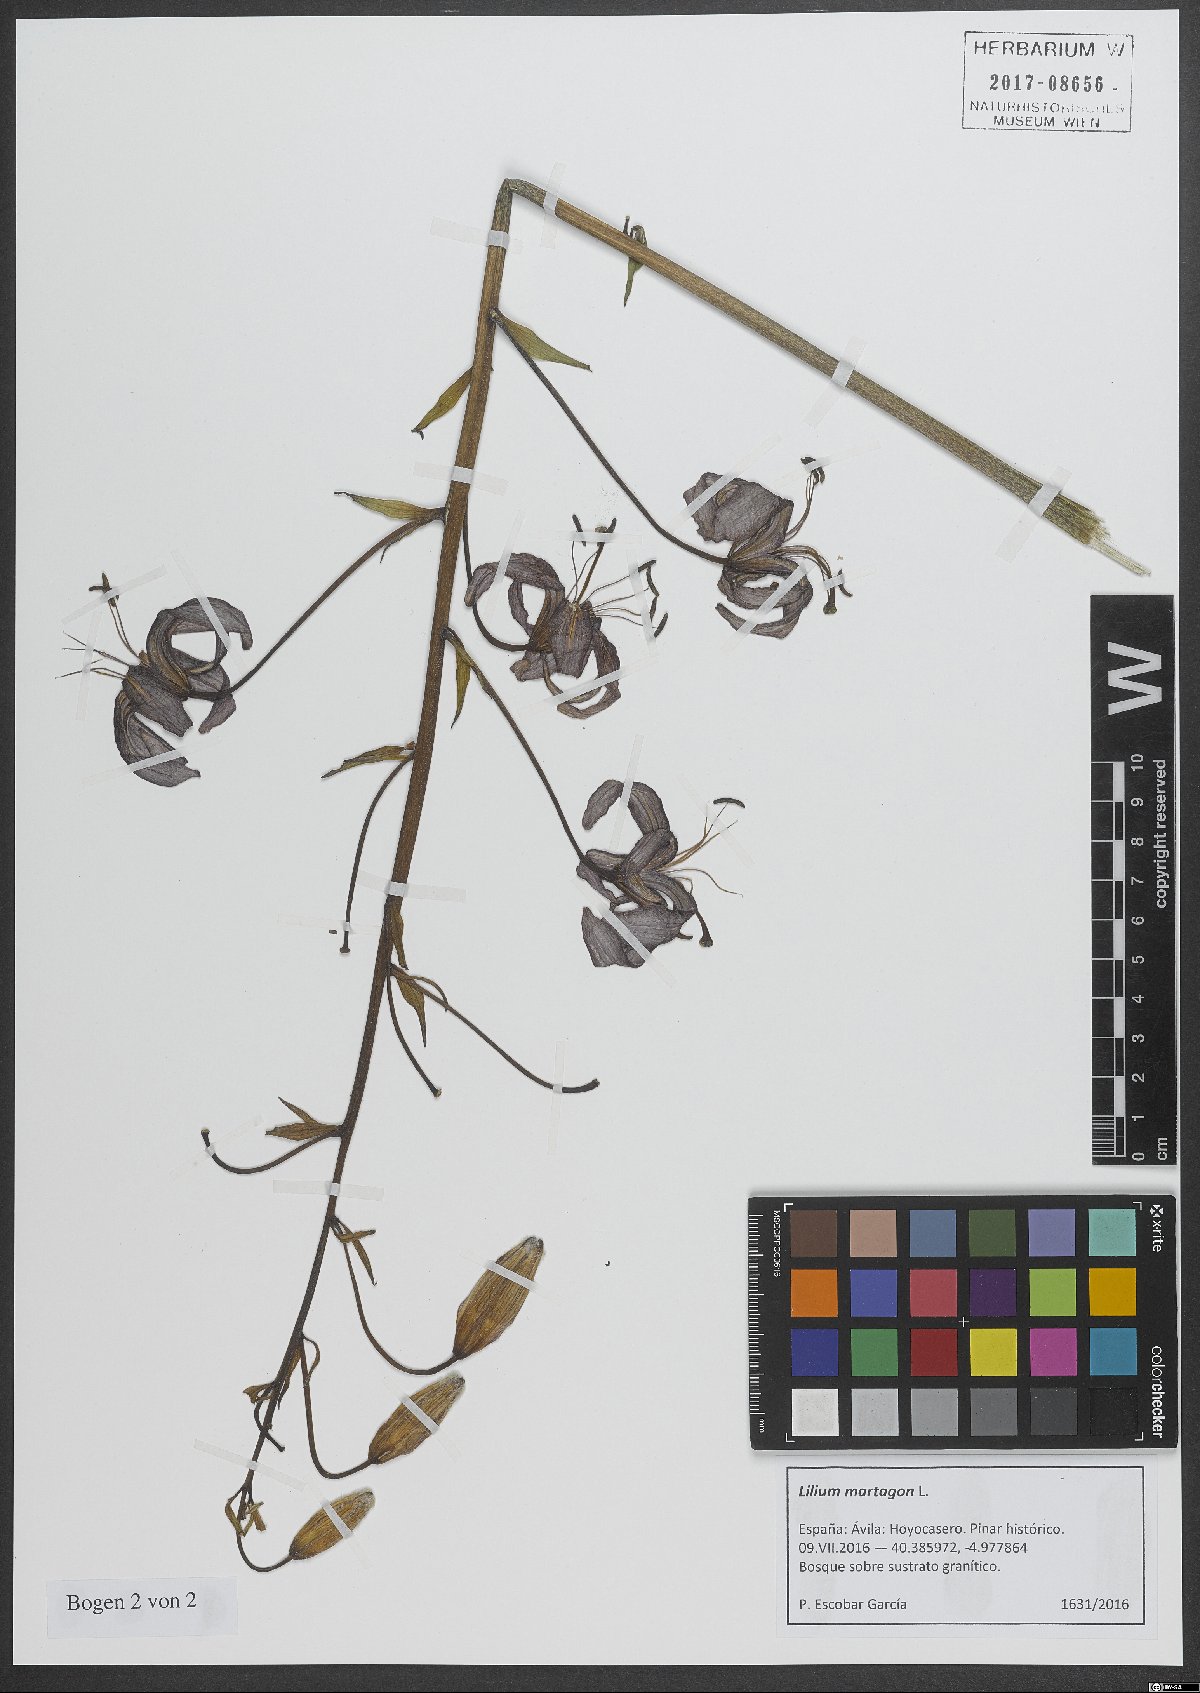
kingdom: Plantae
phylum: Tracheophyta
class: Liliopsida
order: Liliales
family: Liliaceae
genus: Lilium
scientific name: Lilium martagon
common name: Martagon lily
